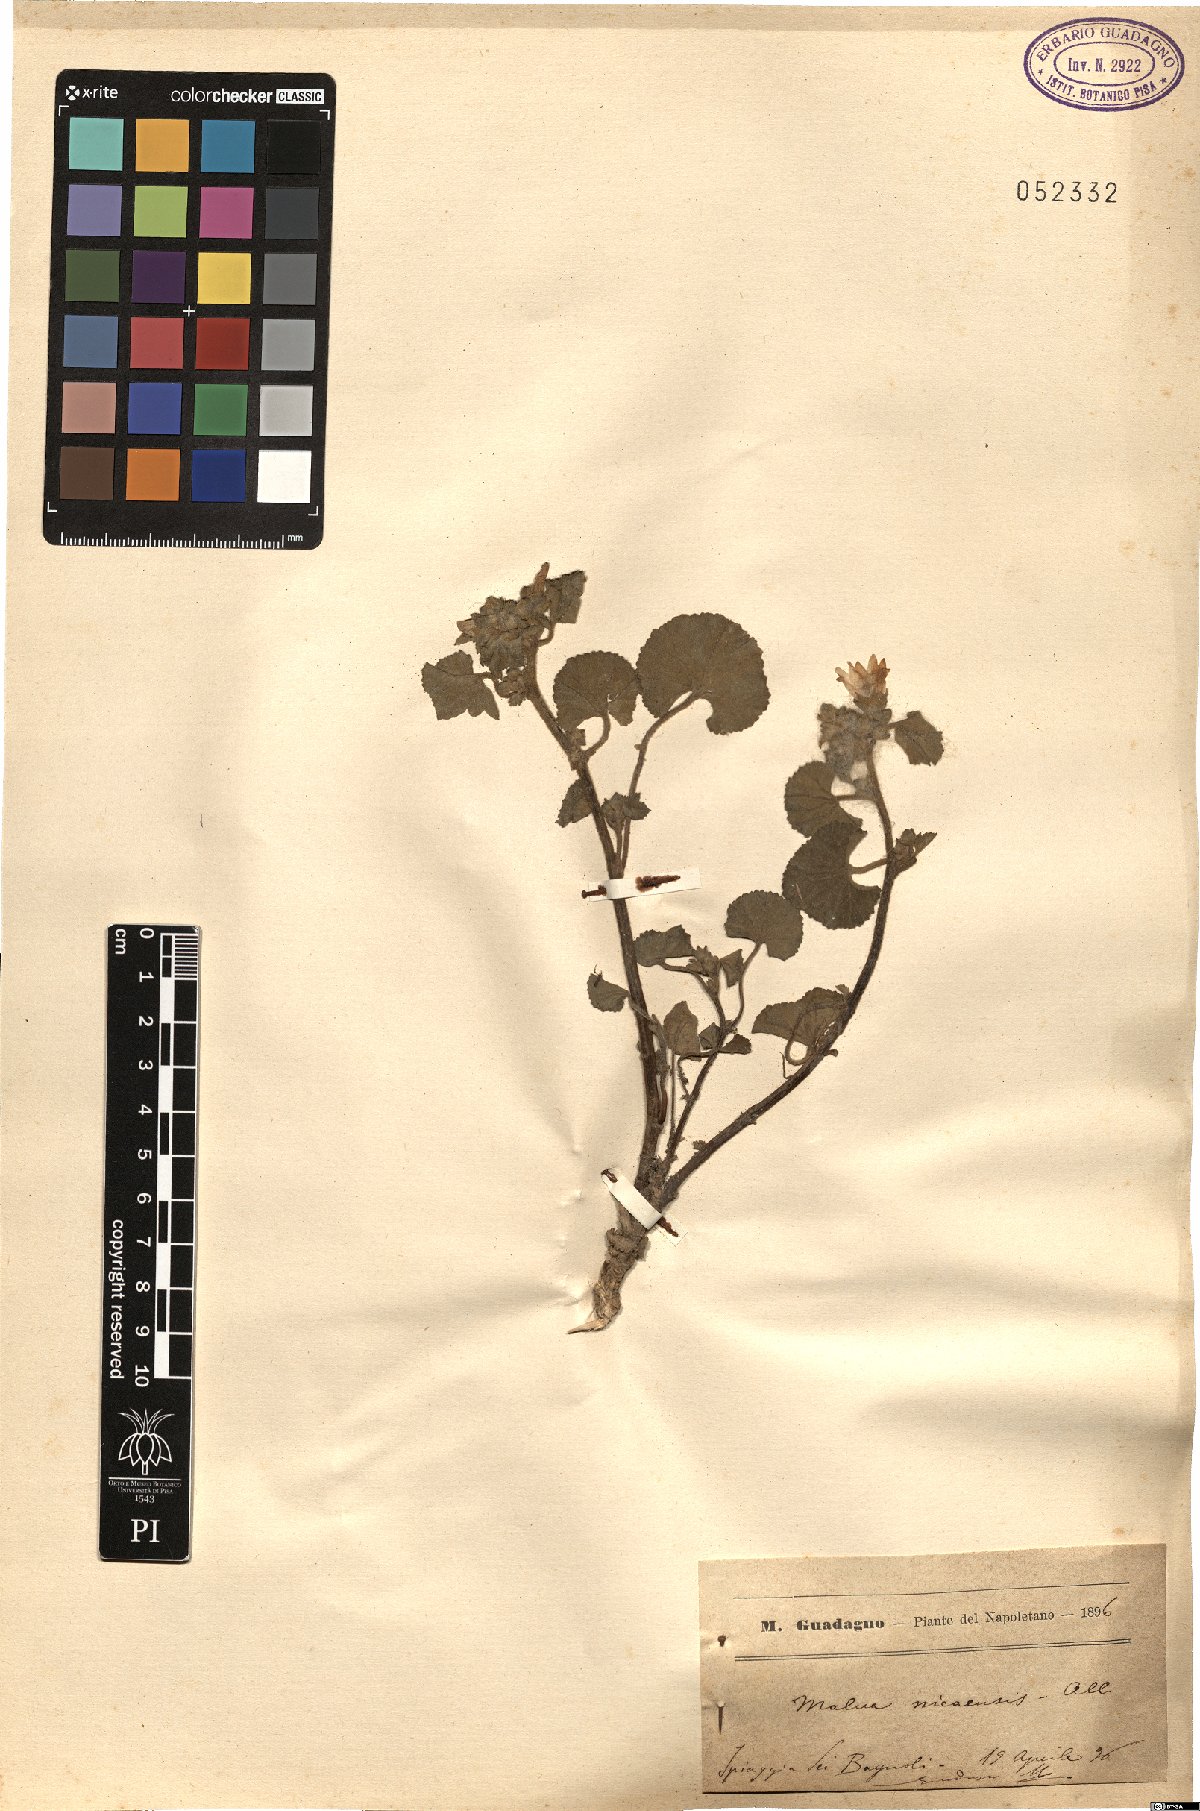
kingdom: Plantae
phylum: Tracheophyta
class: Magnoliopsida
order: Malvales
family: Malvaceae
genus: Malva
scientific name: Malva nicaeensis
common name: French mallow
